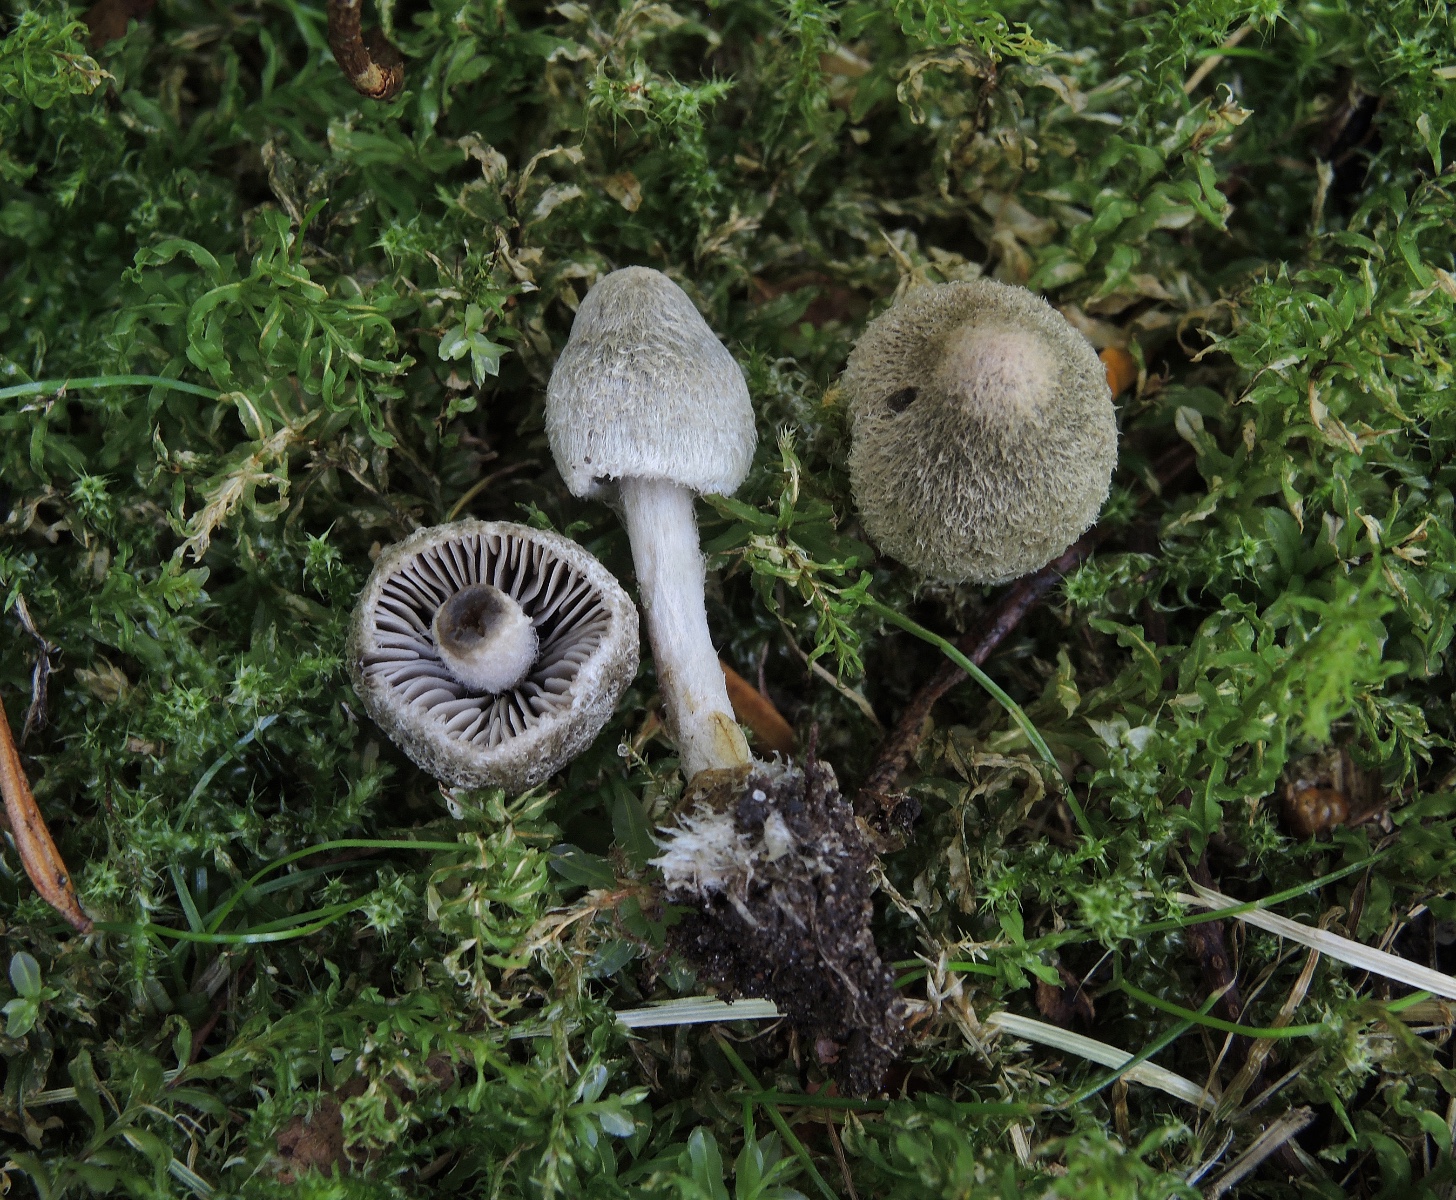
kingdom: Fungi
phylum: Basidiomycota
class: Agaricomycetes
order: Agaricales
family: Entolomataceae
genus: Entoloma
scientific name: Entoloma araneosum
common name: spindelvævs-rødblad
